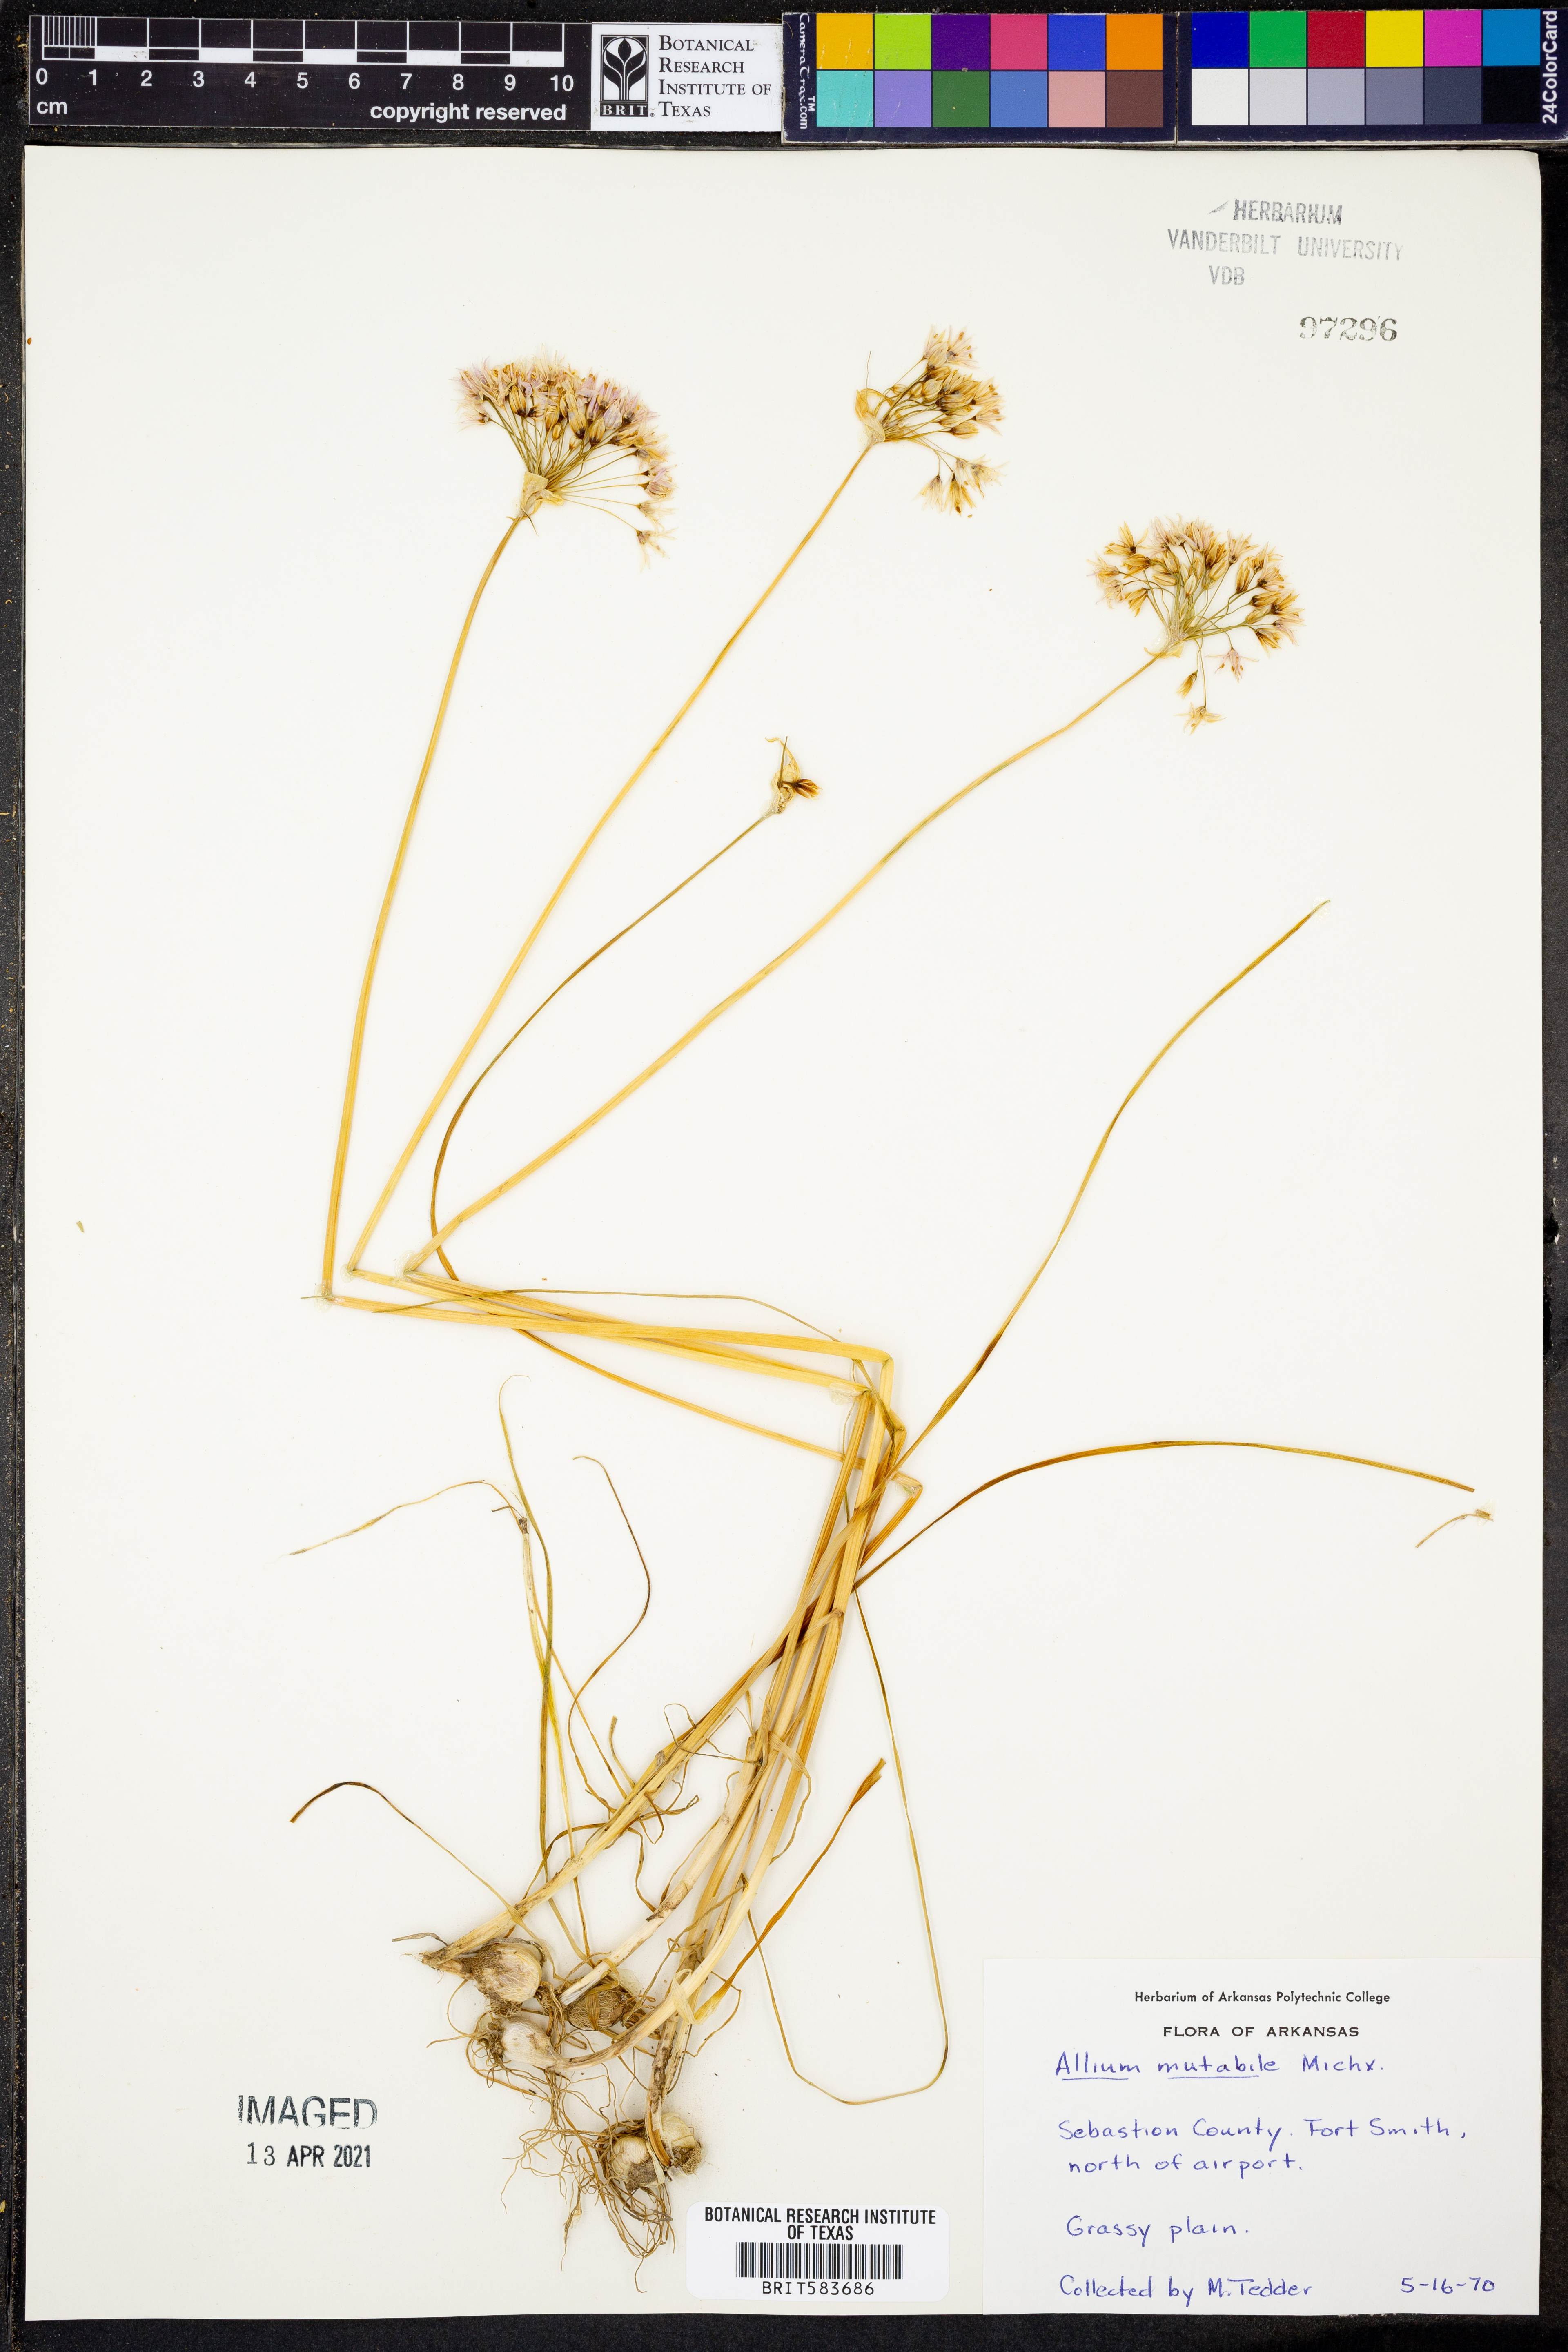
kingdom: Plantae
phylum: Tracheophyta
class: Liliopsida
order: Asparagales
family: Amaryllidaceae
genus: Allium
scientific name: Allium canadense
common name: Meadow garlic
